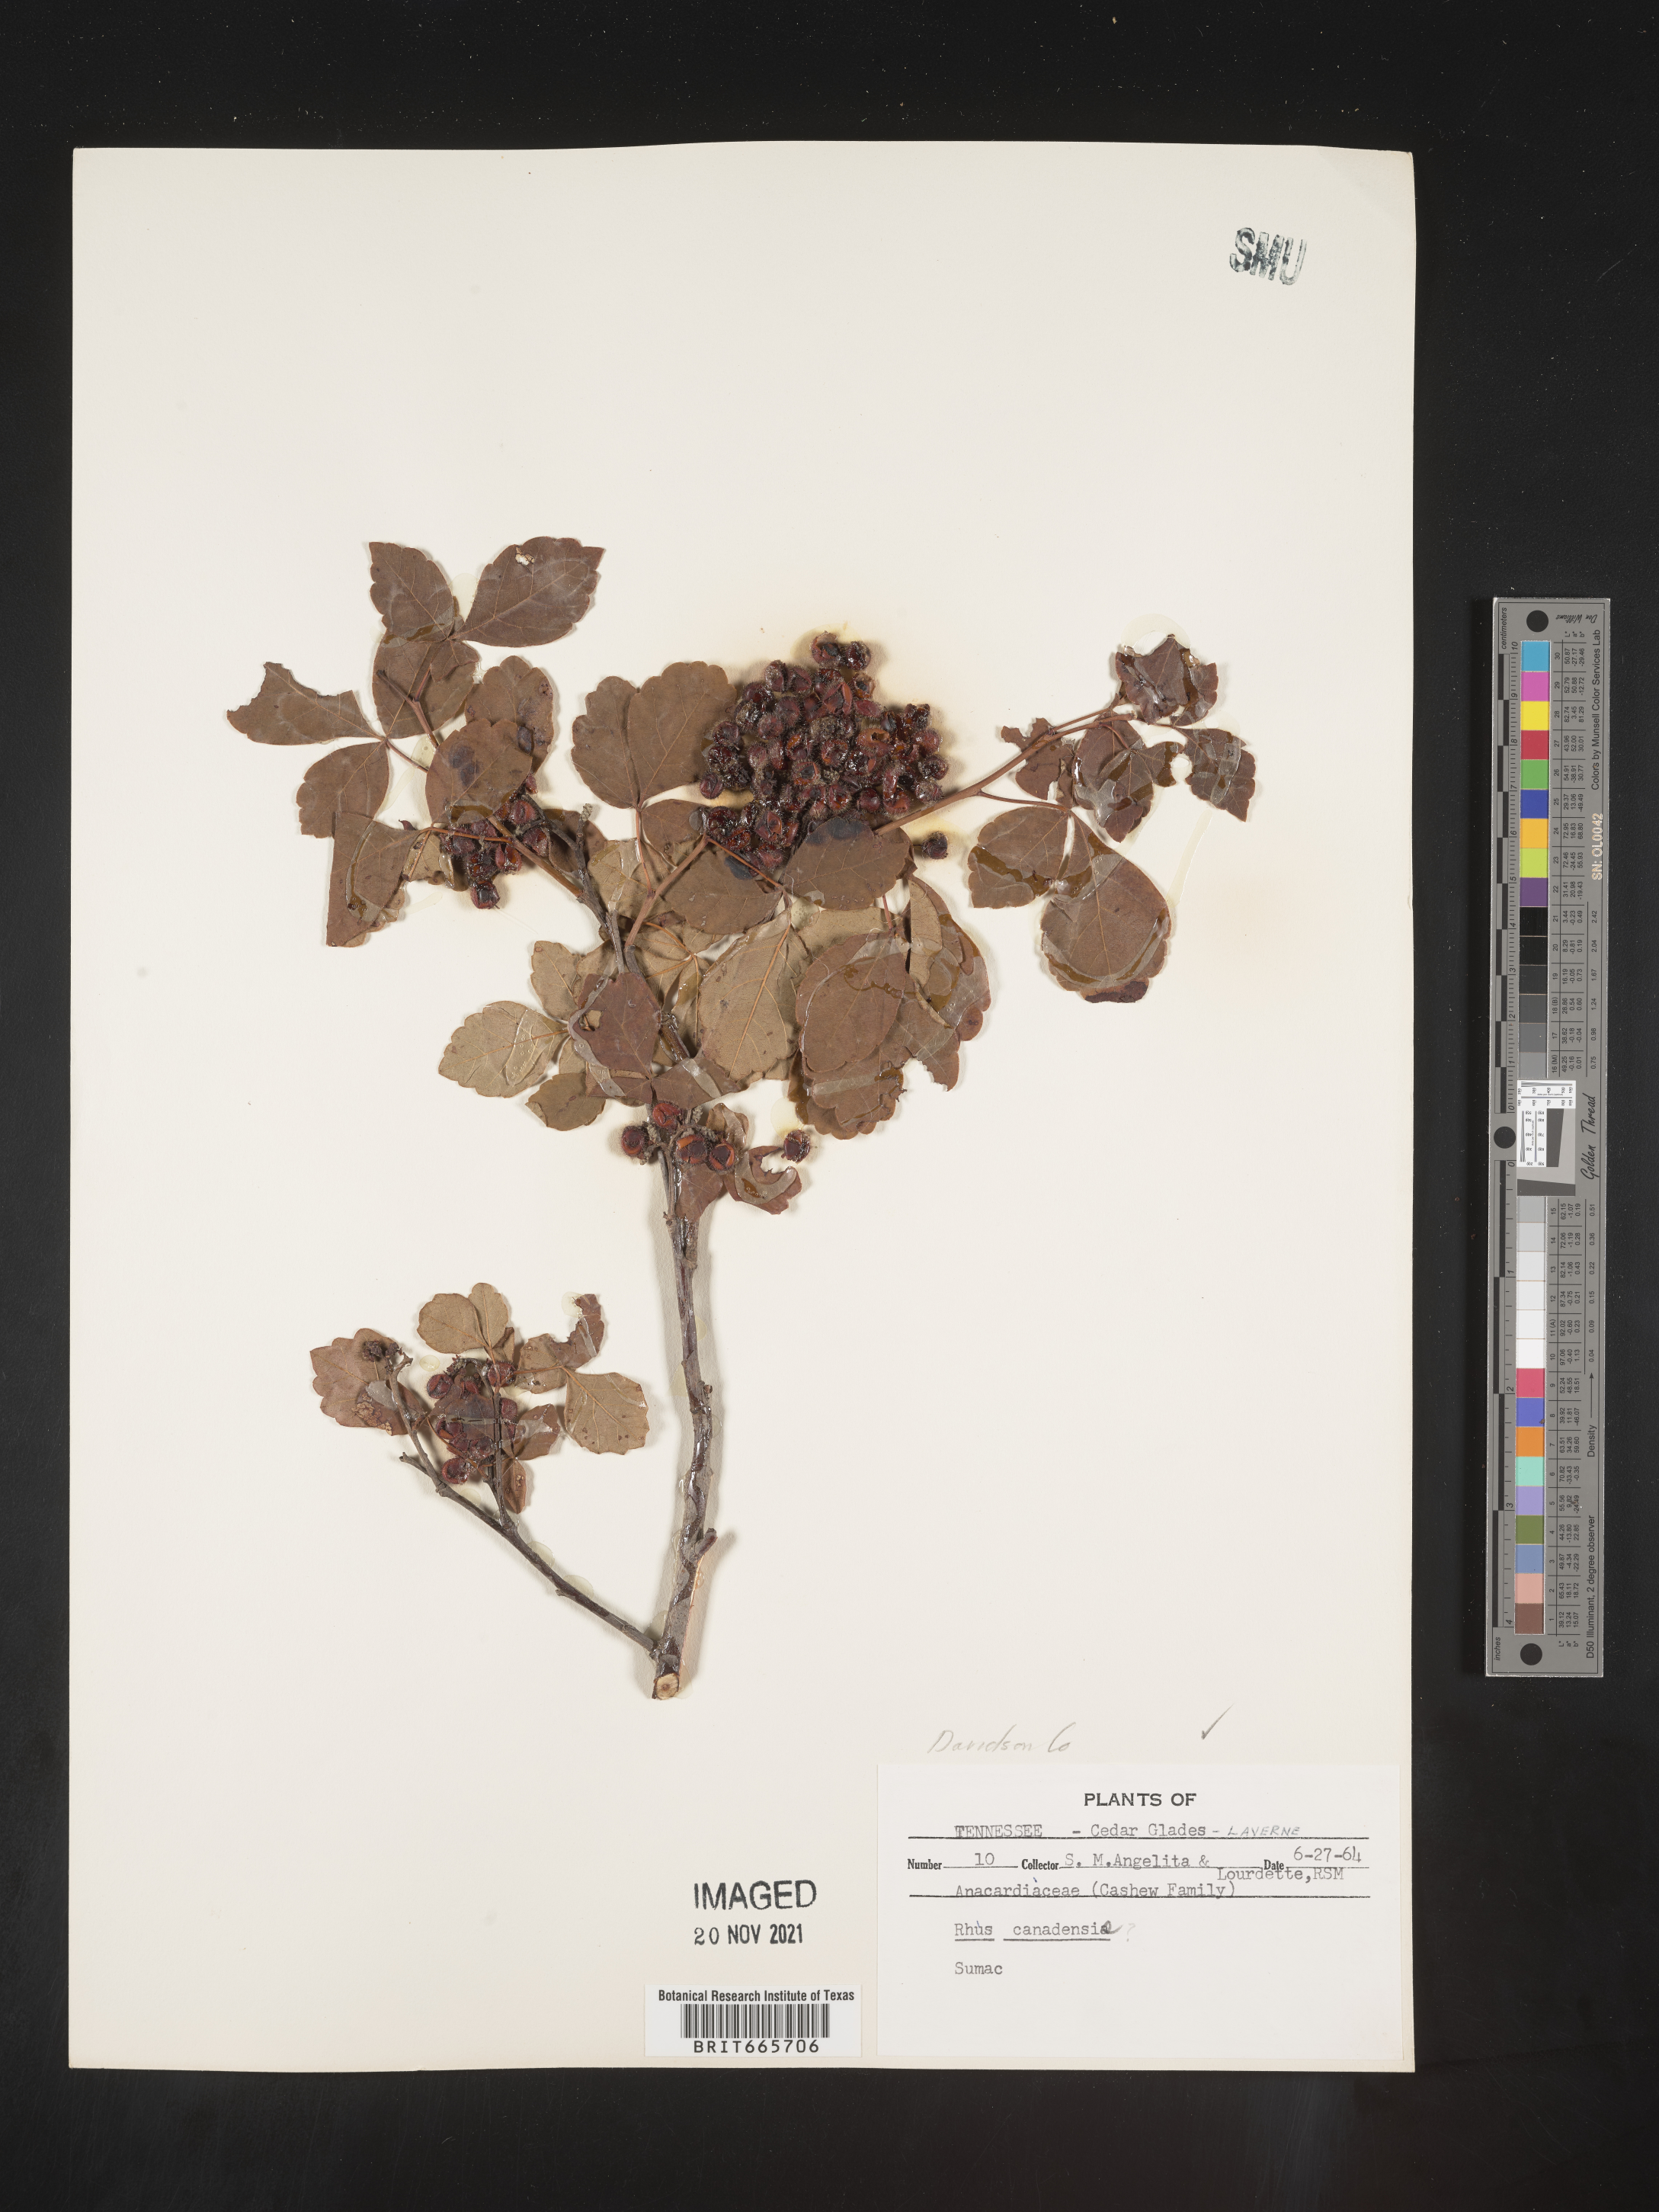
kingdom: Plantae
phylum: Tracheophyta
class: Magnoliopsida
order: Sapindales
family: Anacardiaceae
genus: Rhus
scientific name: Rhus aromatica
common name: Aromatic sumac
